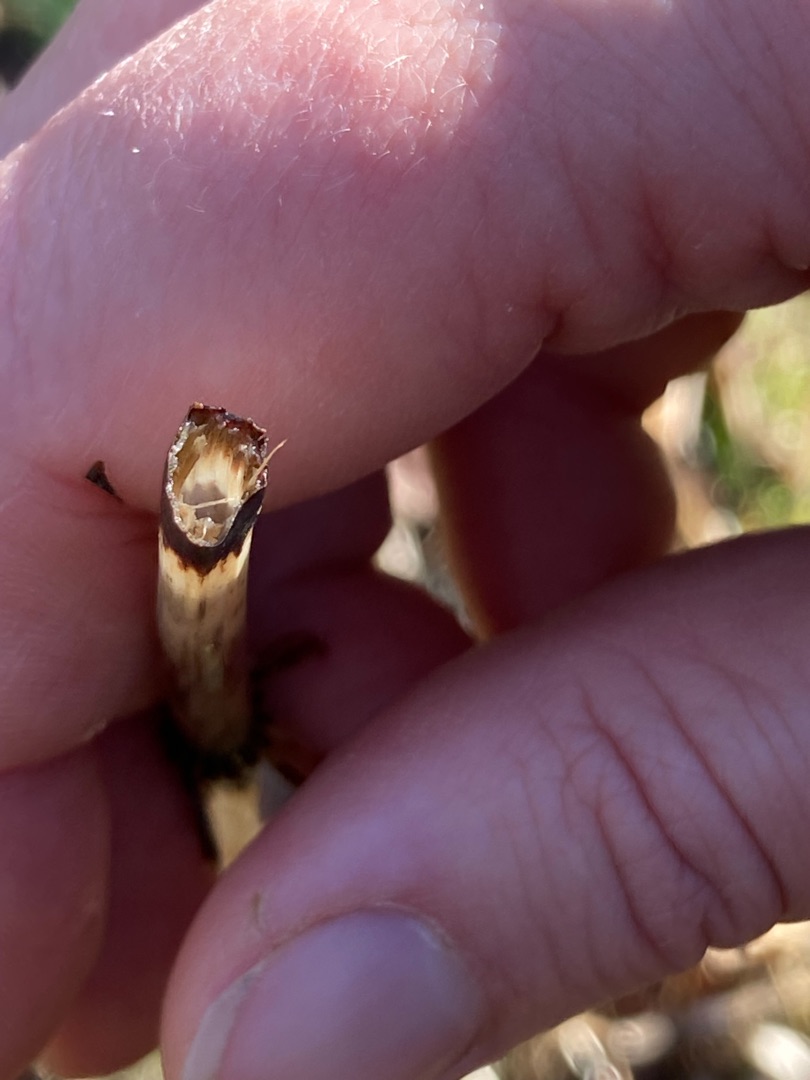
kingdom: Plantae
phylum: Tracheophyta
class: Polypodiopsida
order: Equisetales
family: Equisetaceae
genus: Equisetum
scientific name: Equisetum fluviatile
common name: Dynd-padderok
